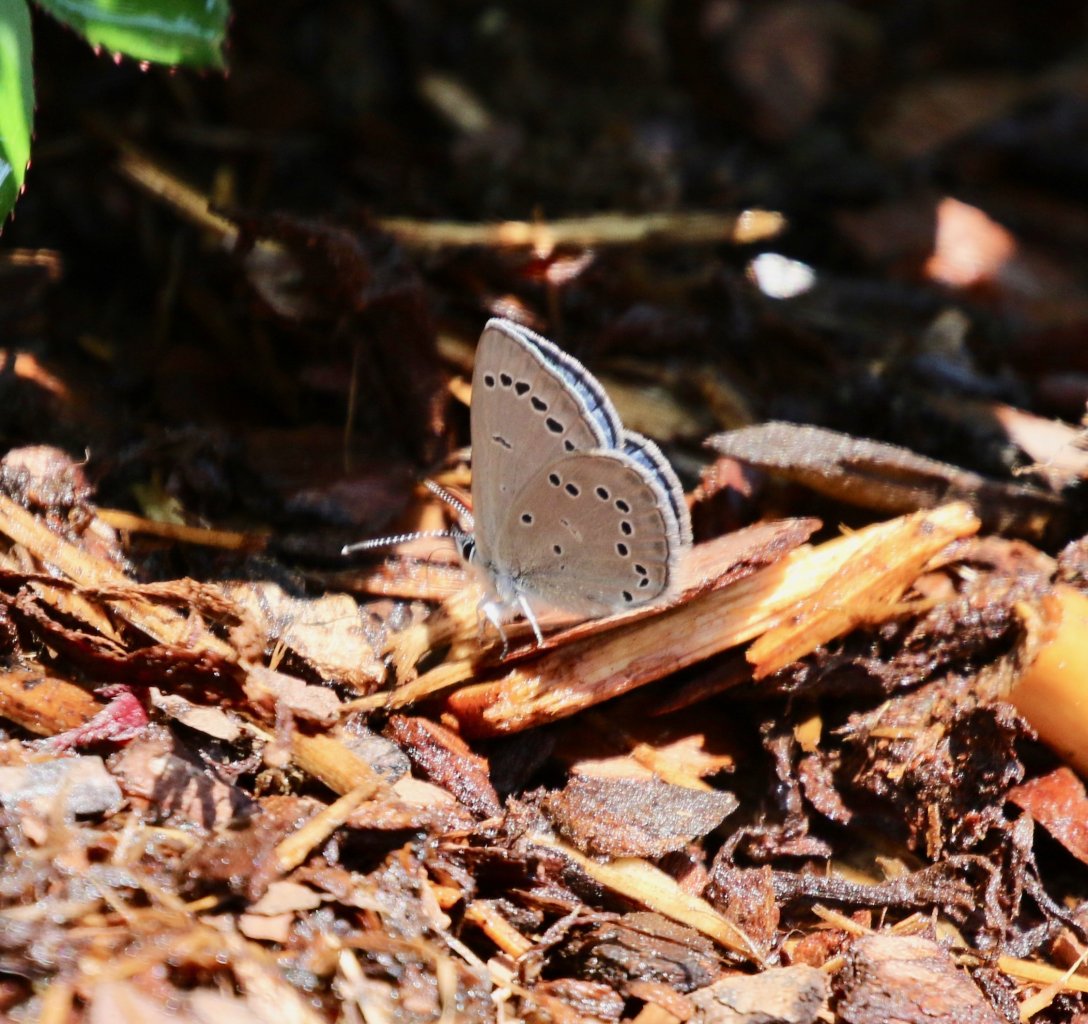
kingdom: Animalia
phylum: Arthropoda
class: Insecta
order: Lepidoptera
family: Lycaenidae
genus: Glaucopsyche
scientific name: Glaucopsyche lygdamus
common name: Silvery Blue
